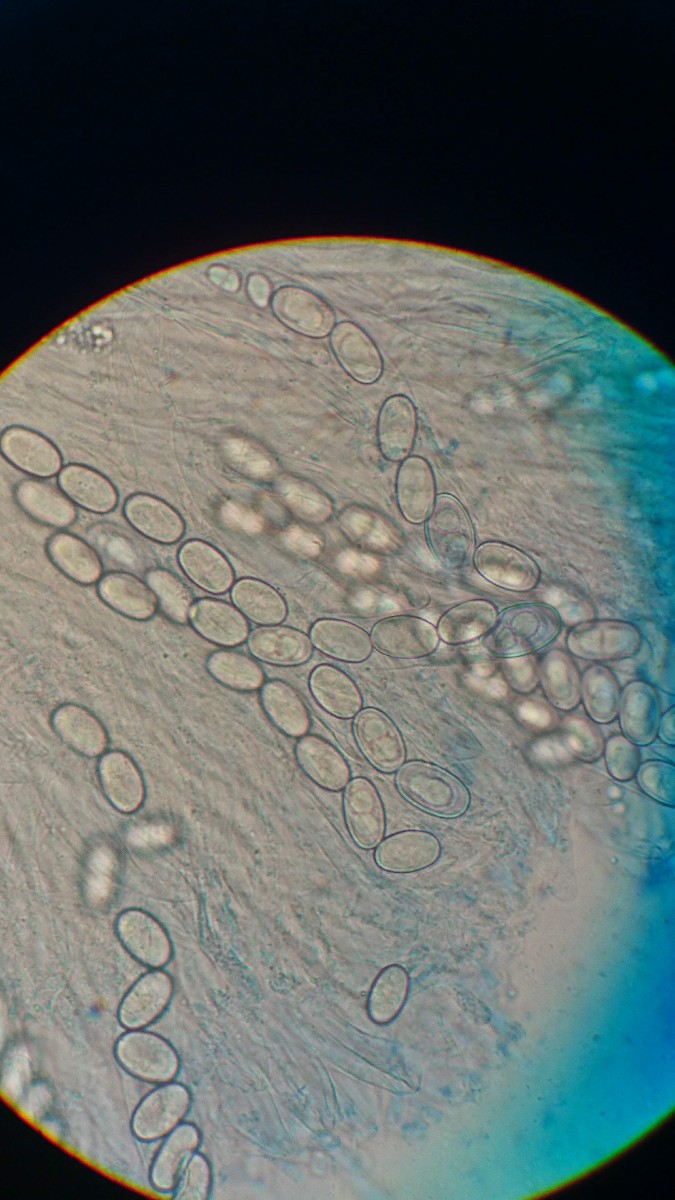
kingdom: Fungi
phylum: Ascomycota
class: Pezizomycetes
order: Pezizales
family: Pezizaceae
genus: Adelphella
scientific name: Adelphella babingtonii
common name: almindelig bækbæger
